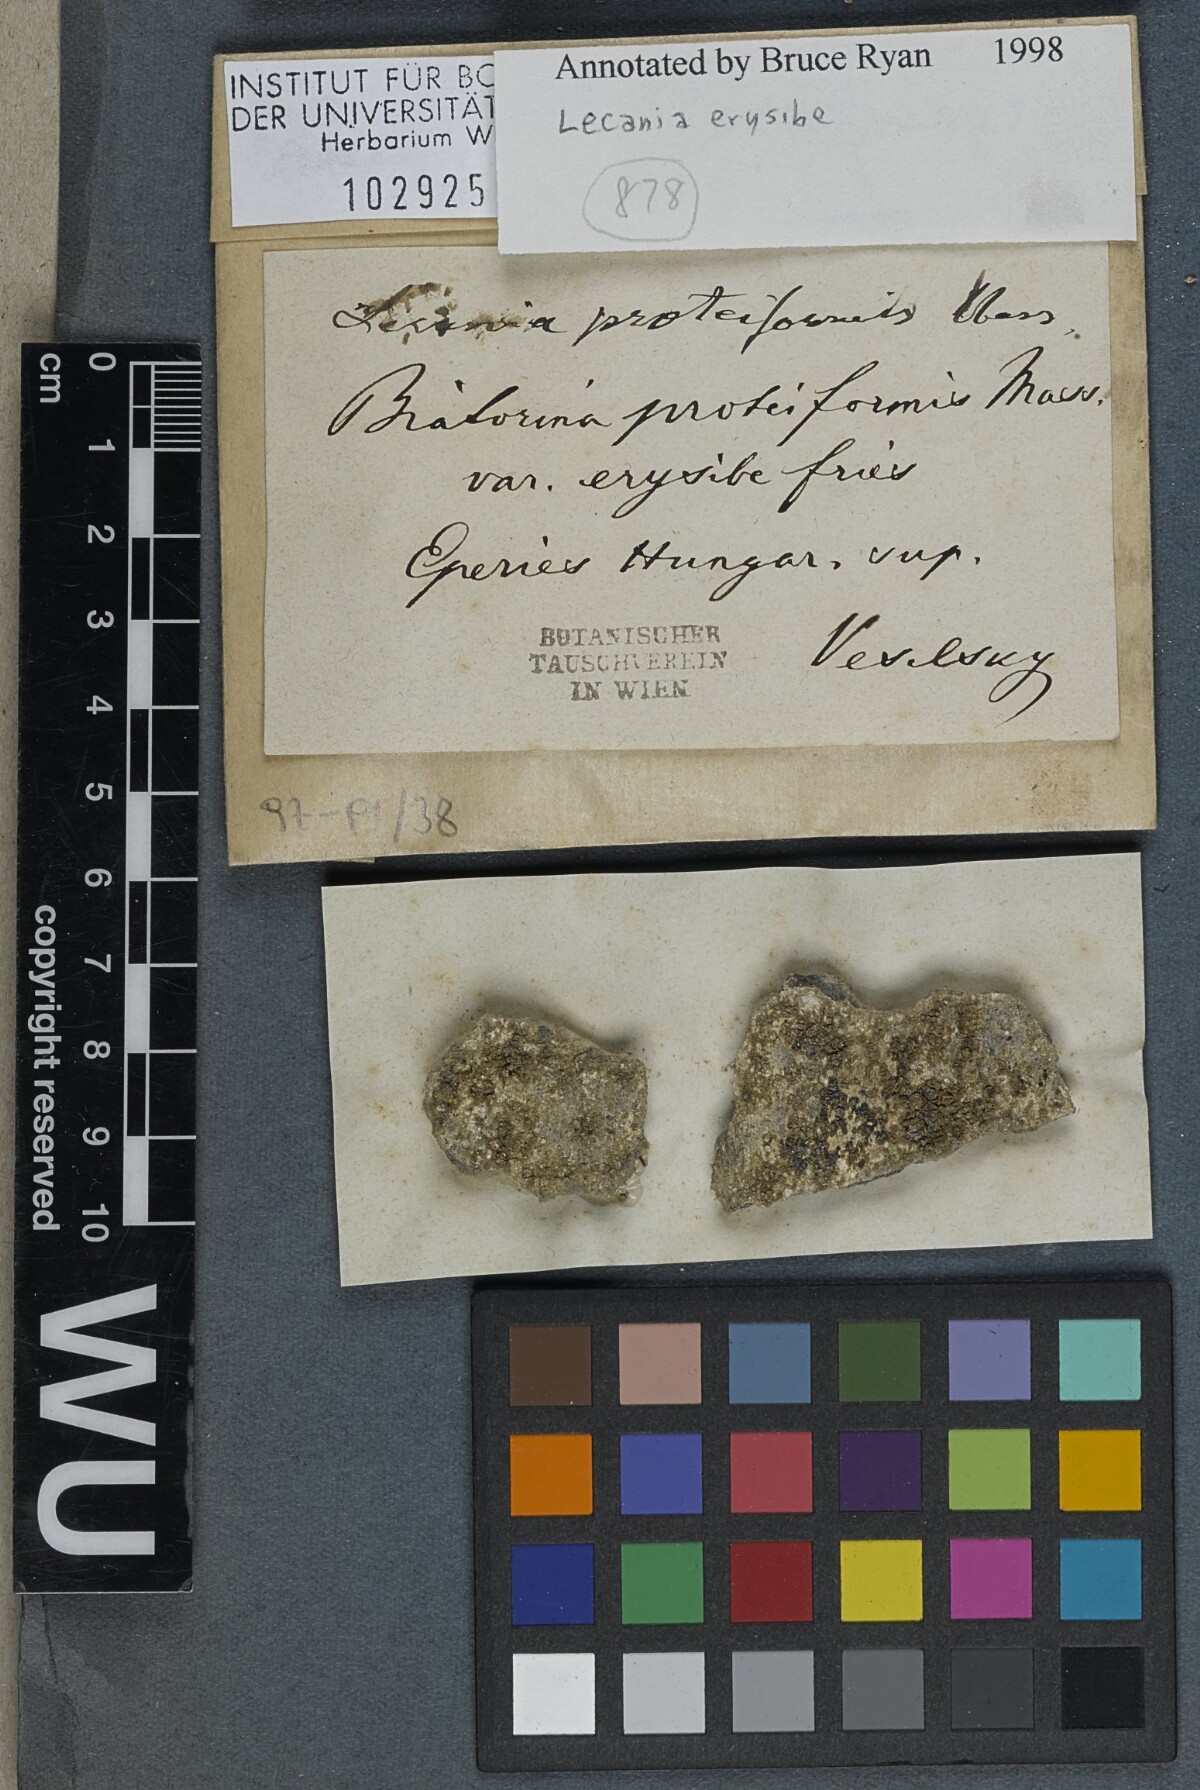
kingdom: Fungi
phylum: Ascomycota
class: Lecanoromycetes
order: Lecanorales
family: Ramalinaceae
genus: Lecania
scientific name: Lecania erysibe
